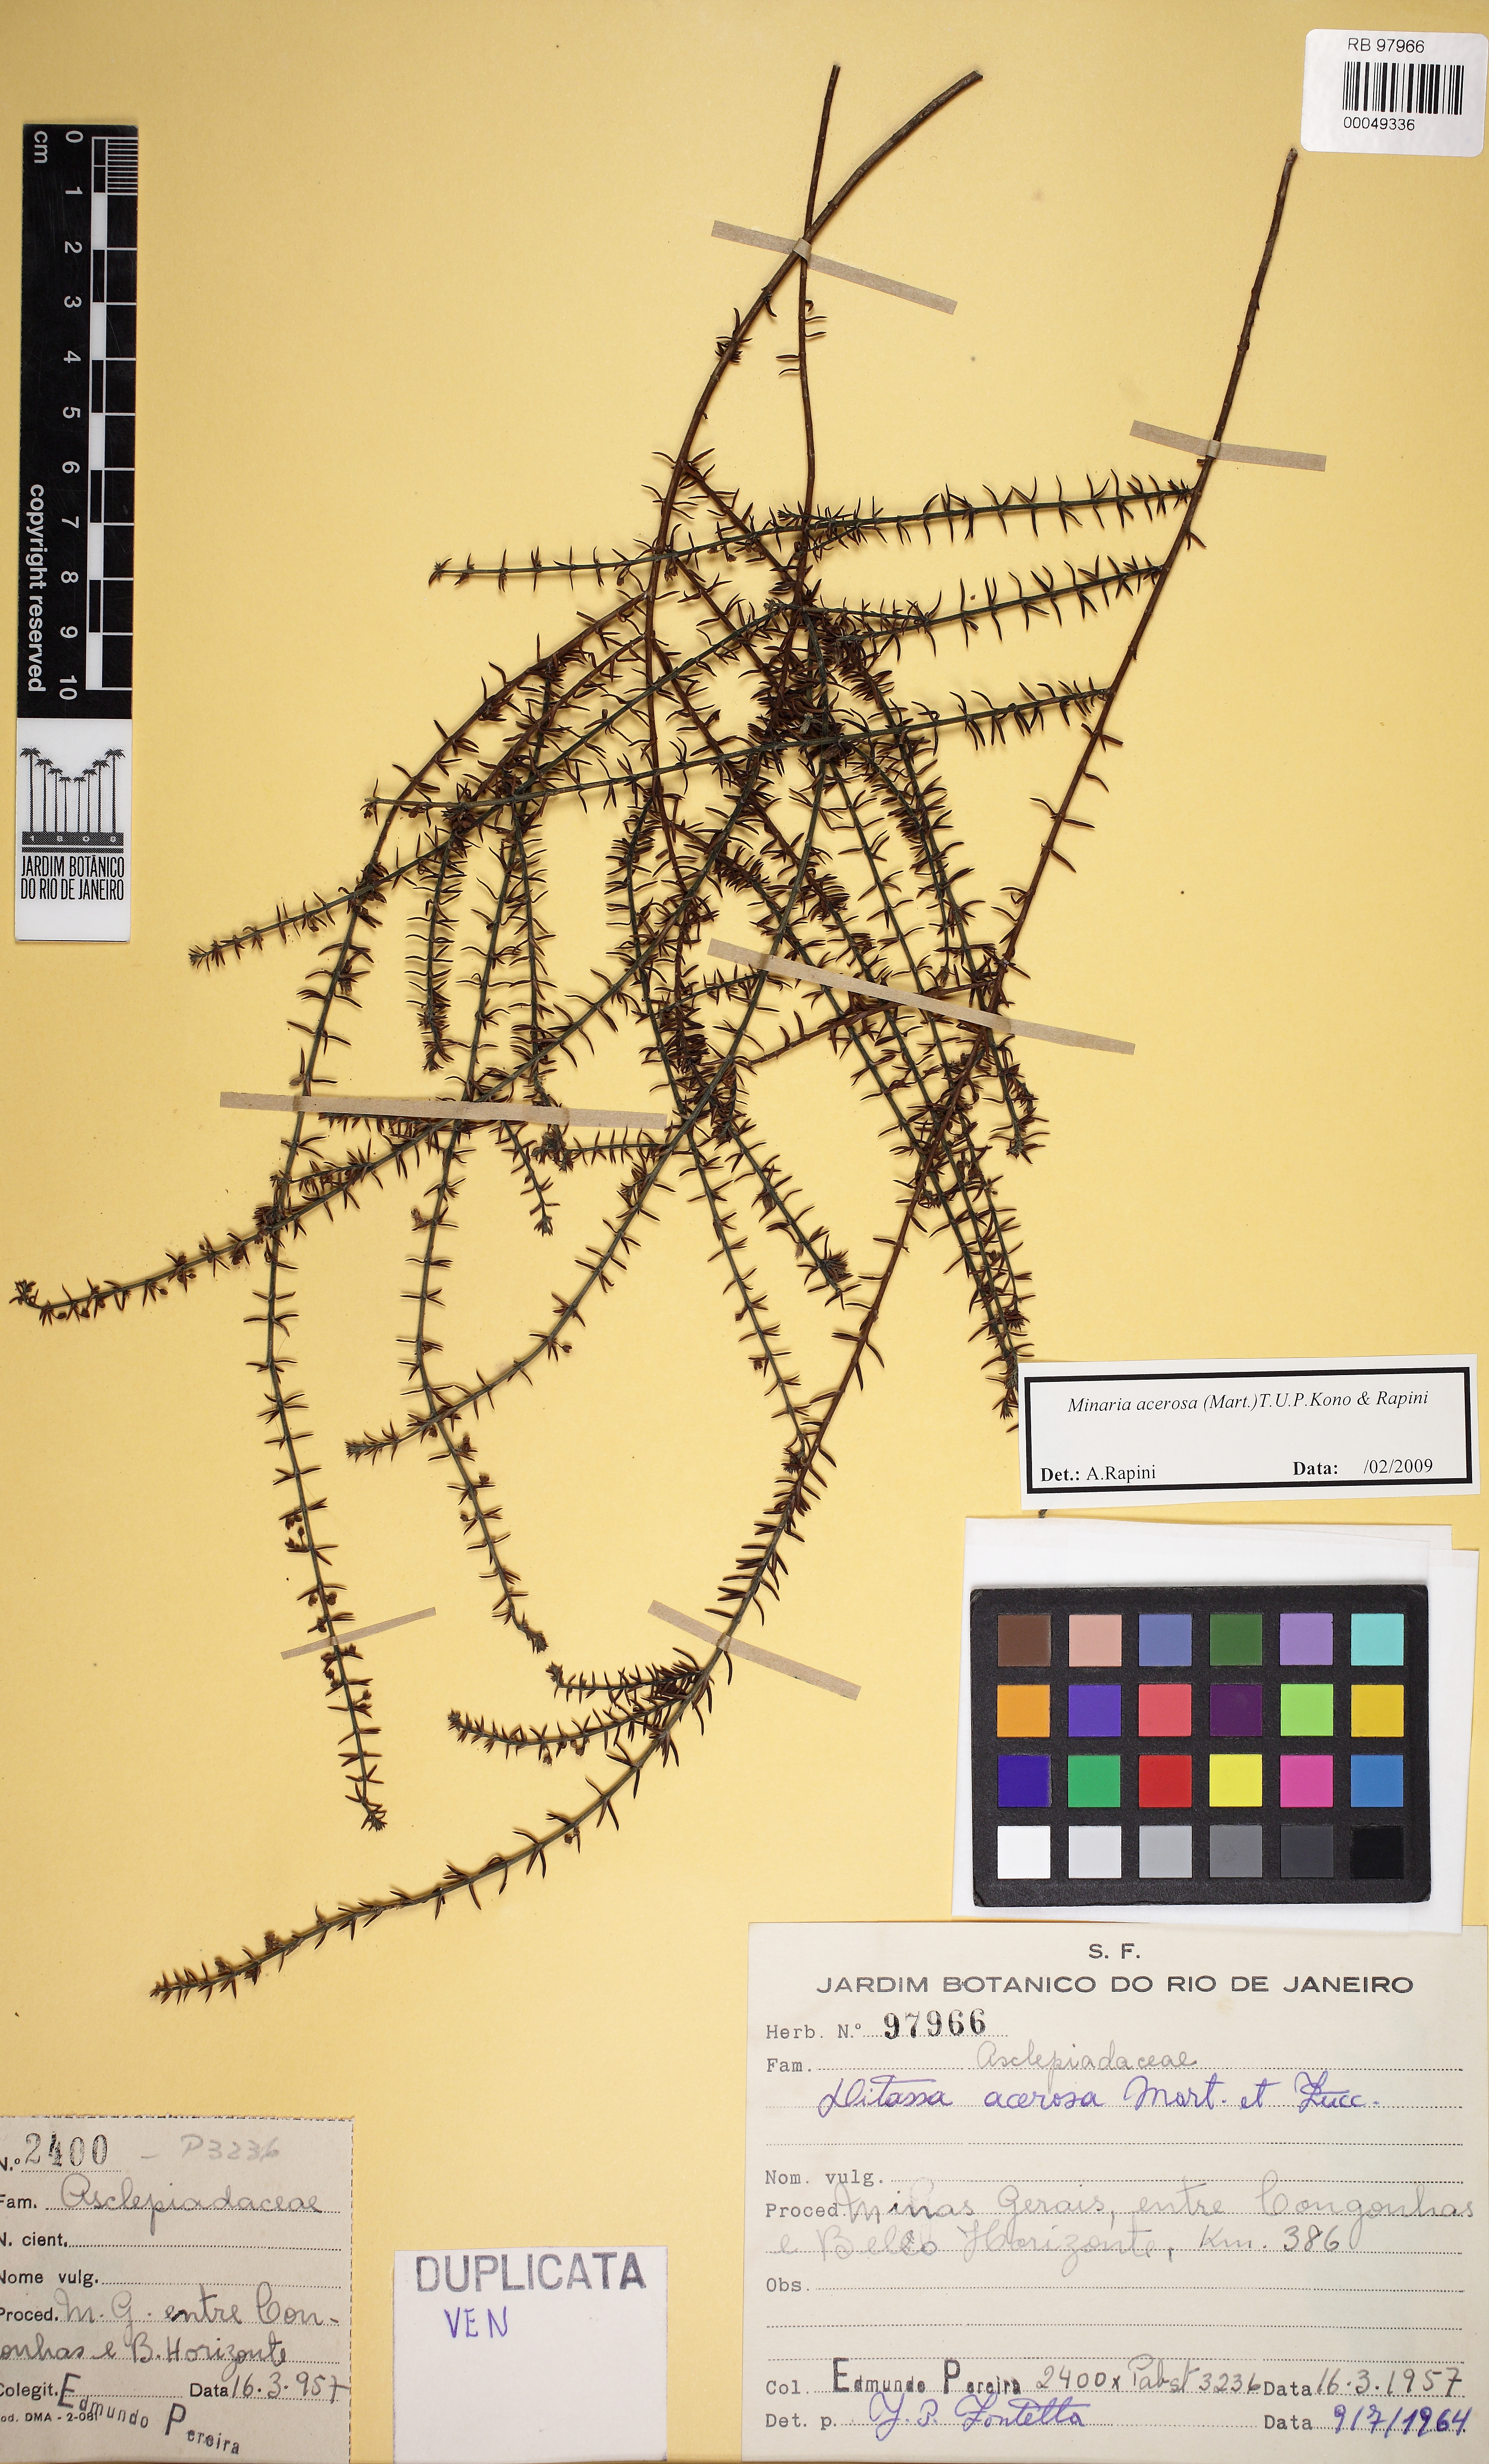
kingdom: Plantae
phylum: Tracheophyta
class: Magnoliopsida
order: Gentianales
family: Apocynaceae
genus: Minaria
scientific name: Minaria acerosa
